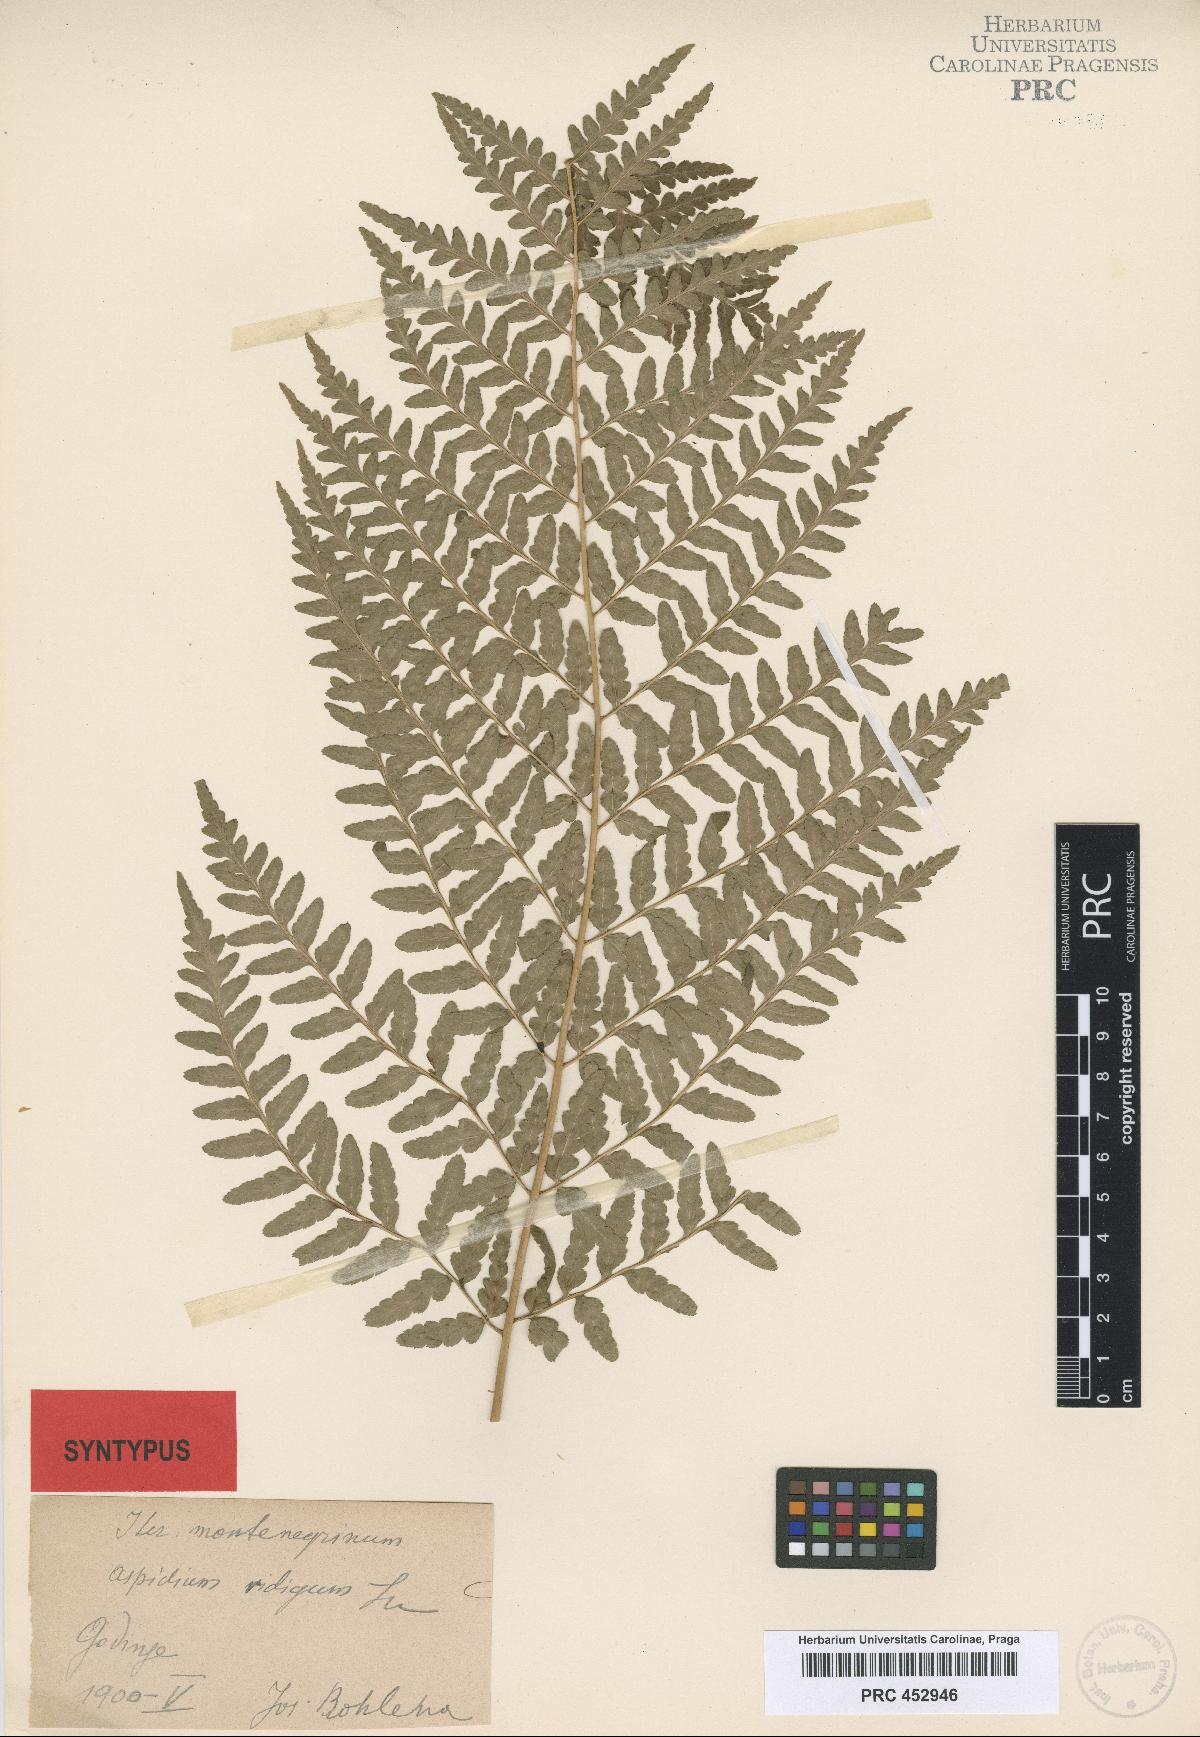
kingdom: Plantae
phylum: Tracheophyta
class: Polypodiopsida
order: Polypodiales
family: Dryopteridaceae
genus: Dryopteris
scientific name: Dryopteris villarii
